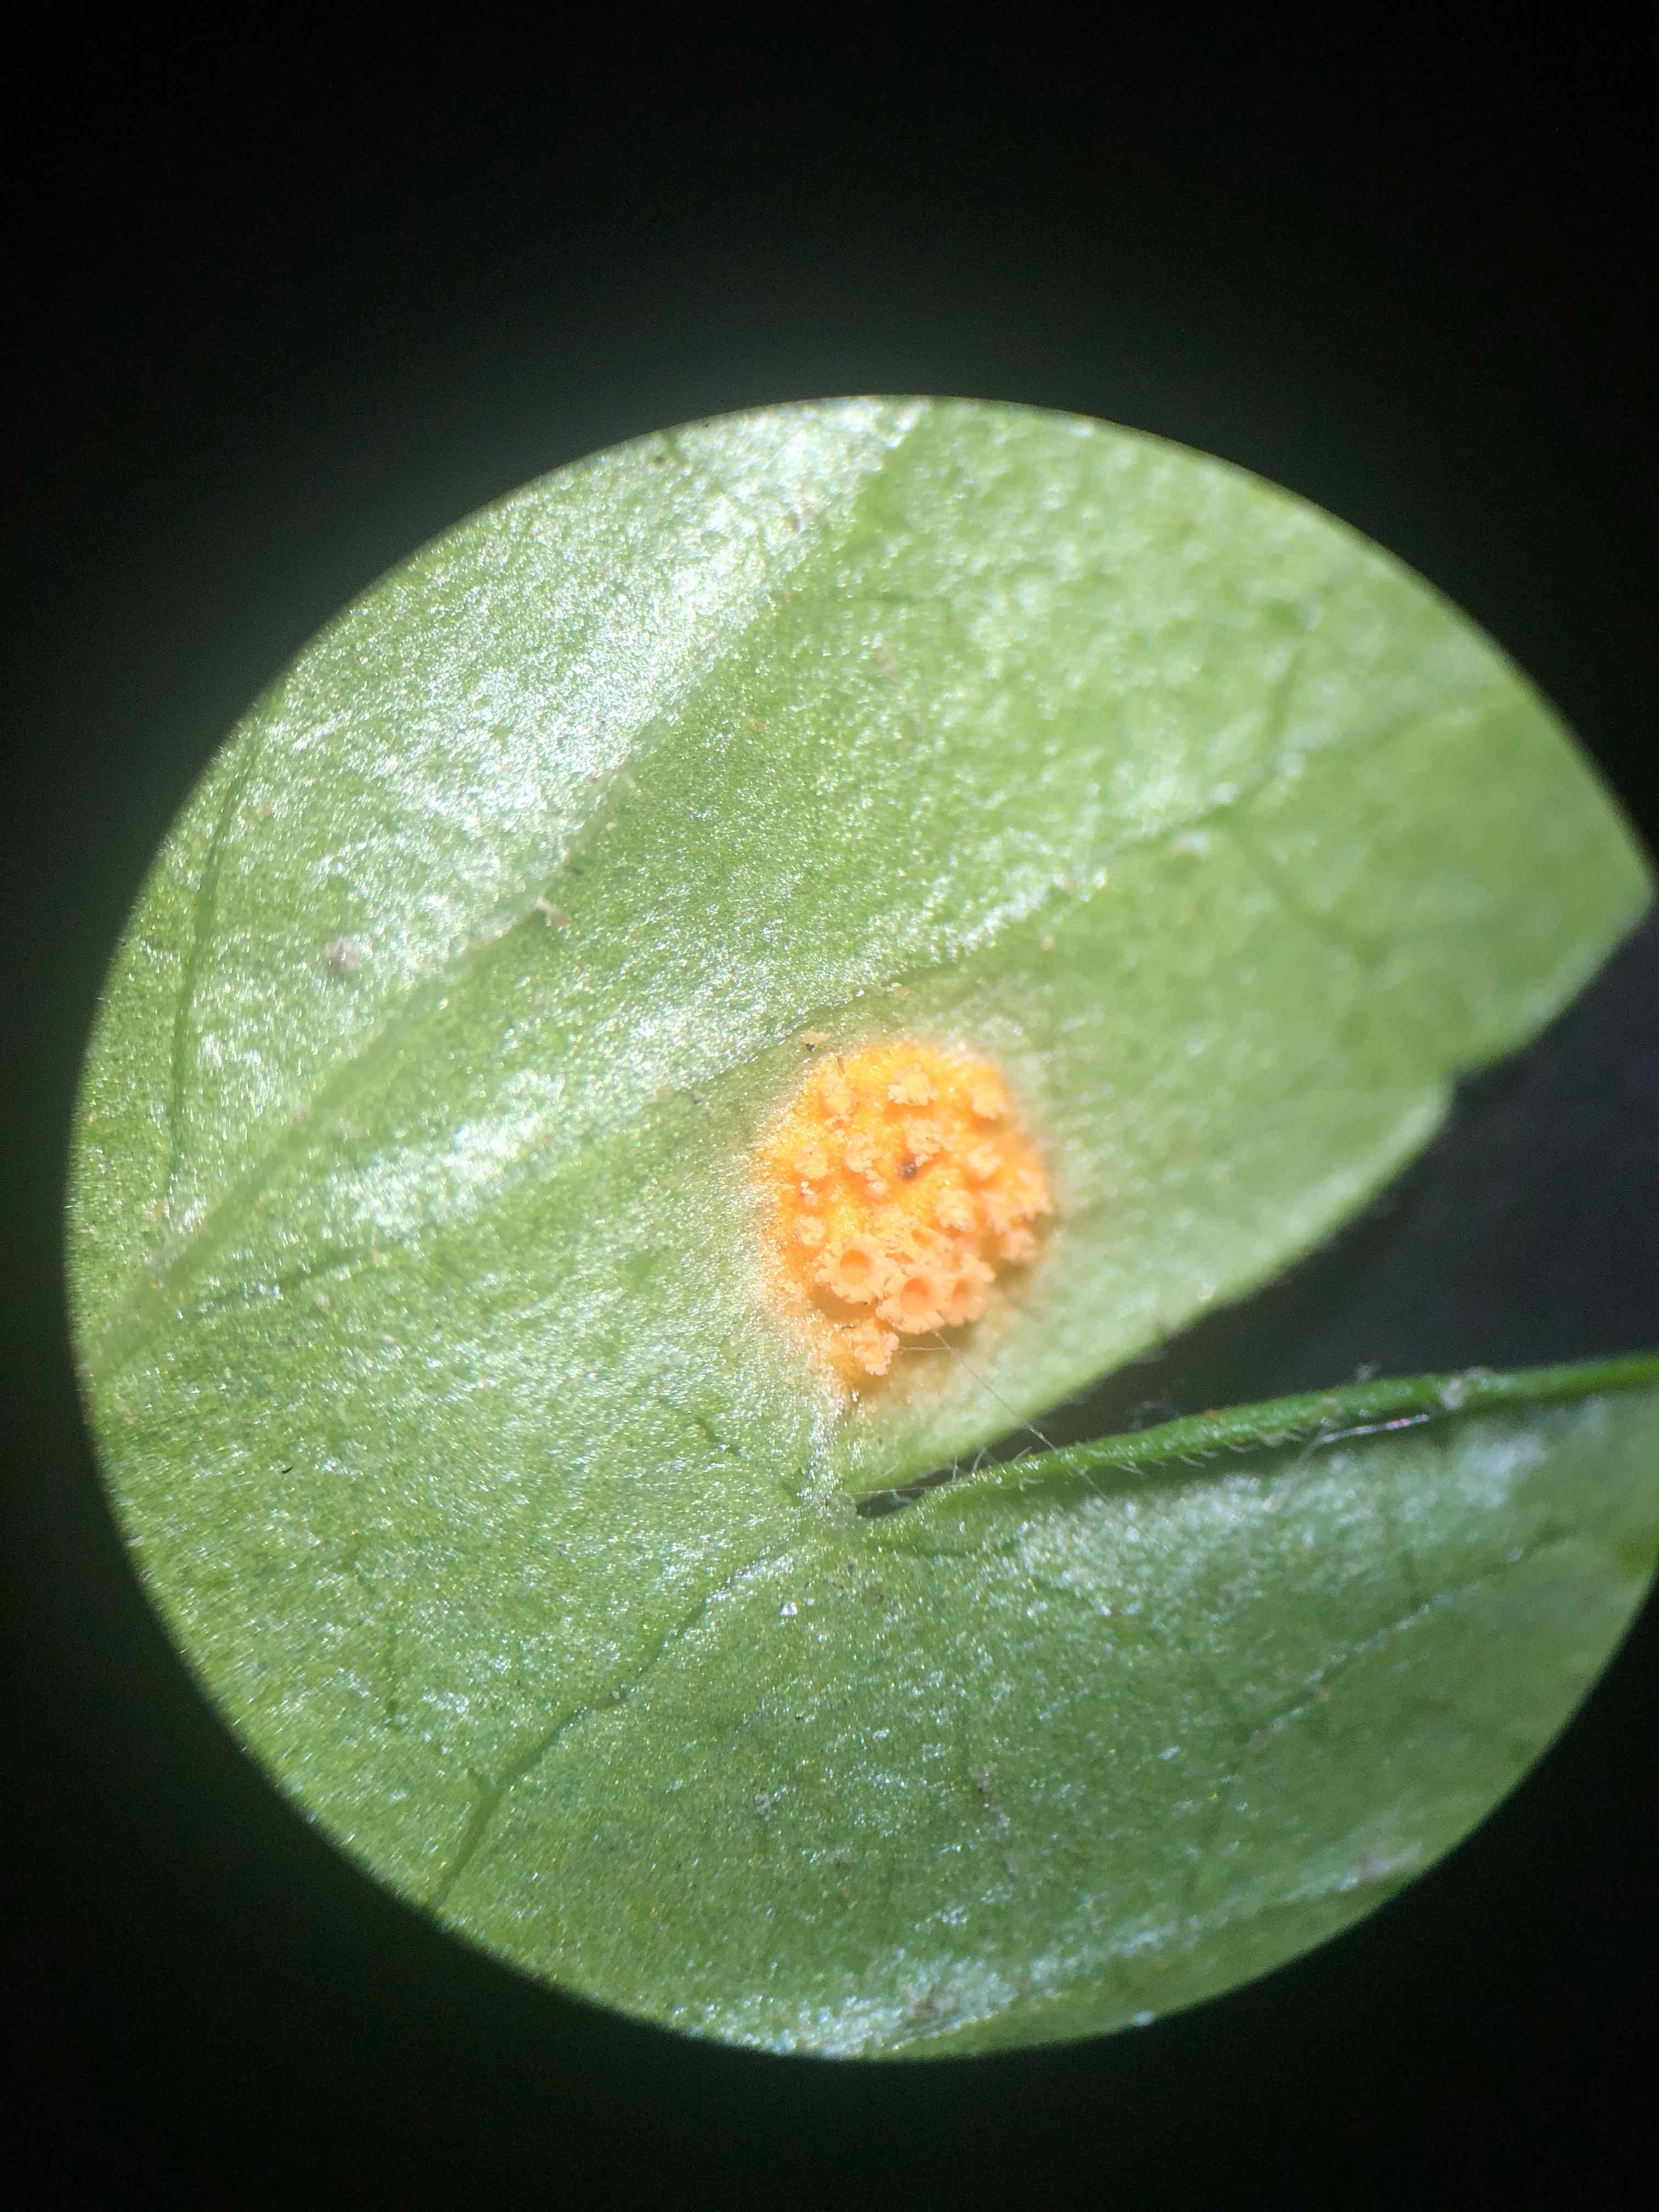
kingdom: Fungi
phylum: Basidiomycota
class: Pucciniomycetes
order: Pucciniales
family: Pucciniaceae
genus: Puccinia
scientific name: Puccinia caricina
